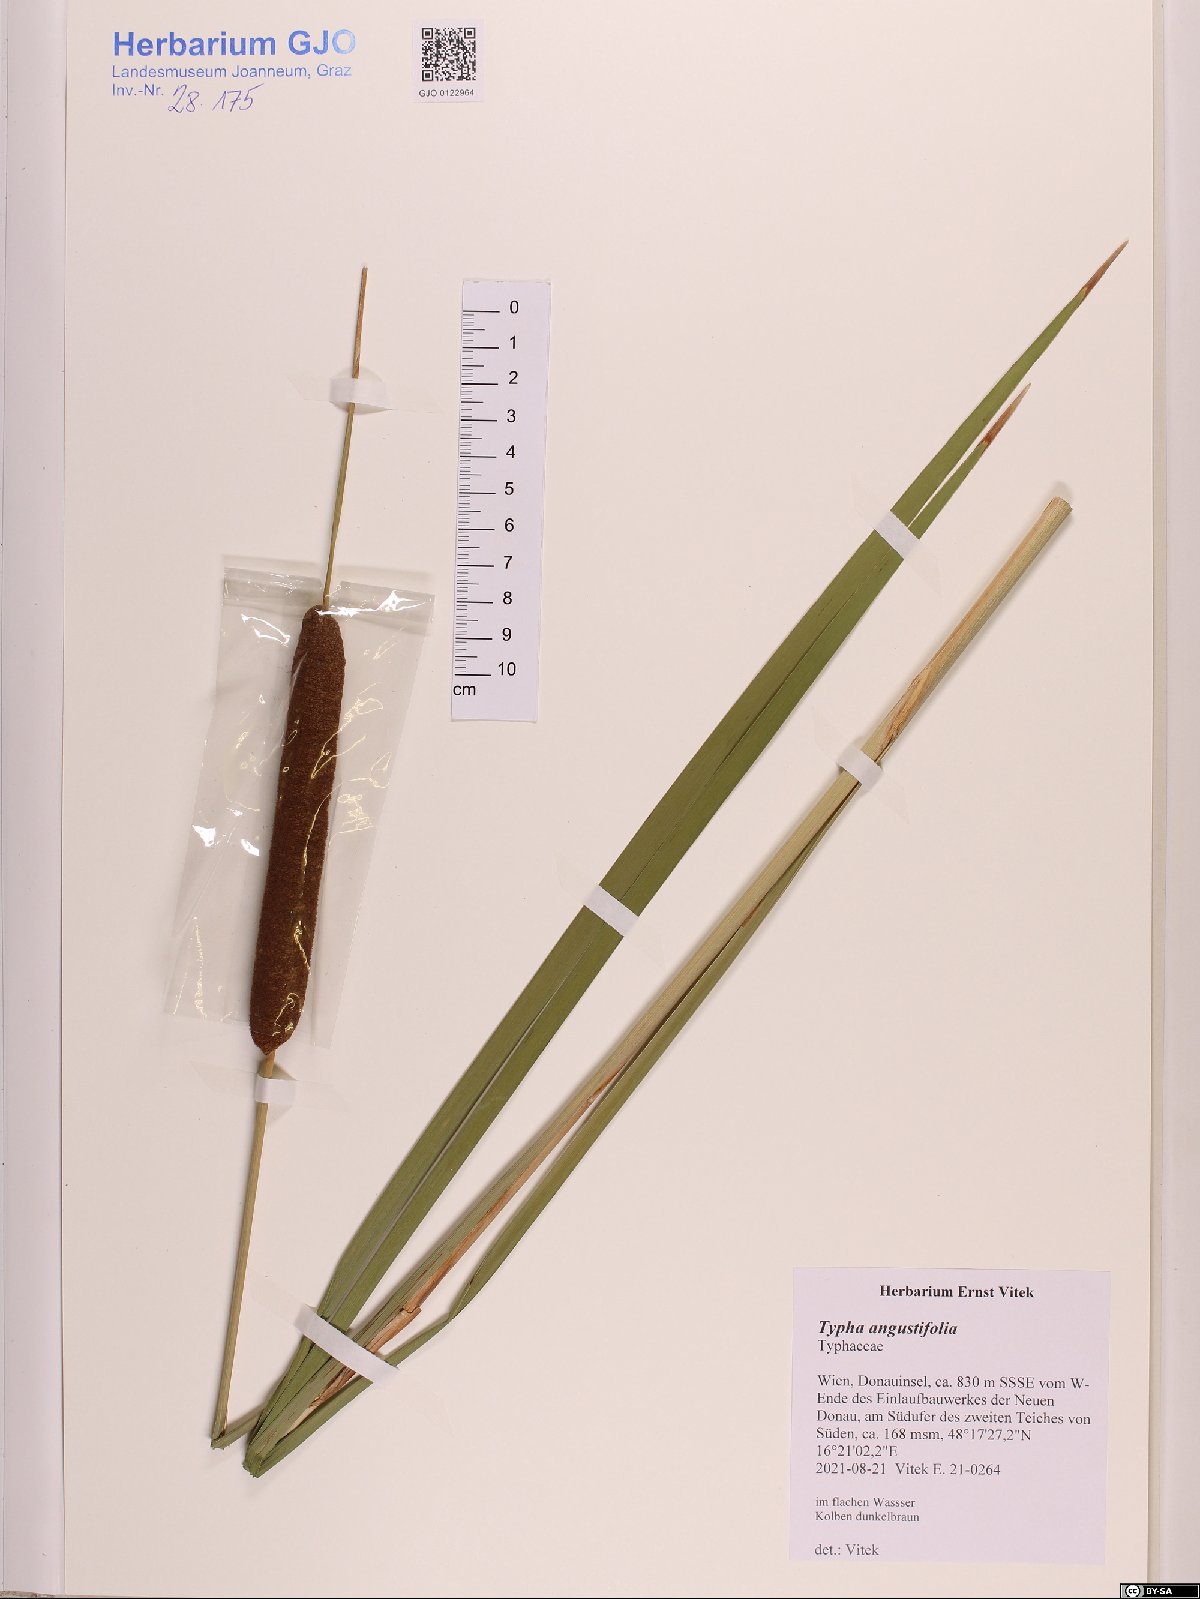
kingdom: Plantae
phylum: Tracheophyta
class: Liliopsida
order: Poales
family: Typhaceae
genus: Typha
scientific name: Typha angustifolia
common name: Lesser bulrush
